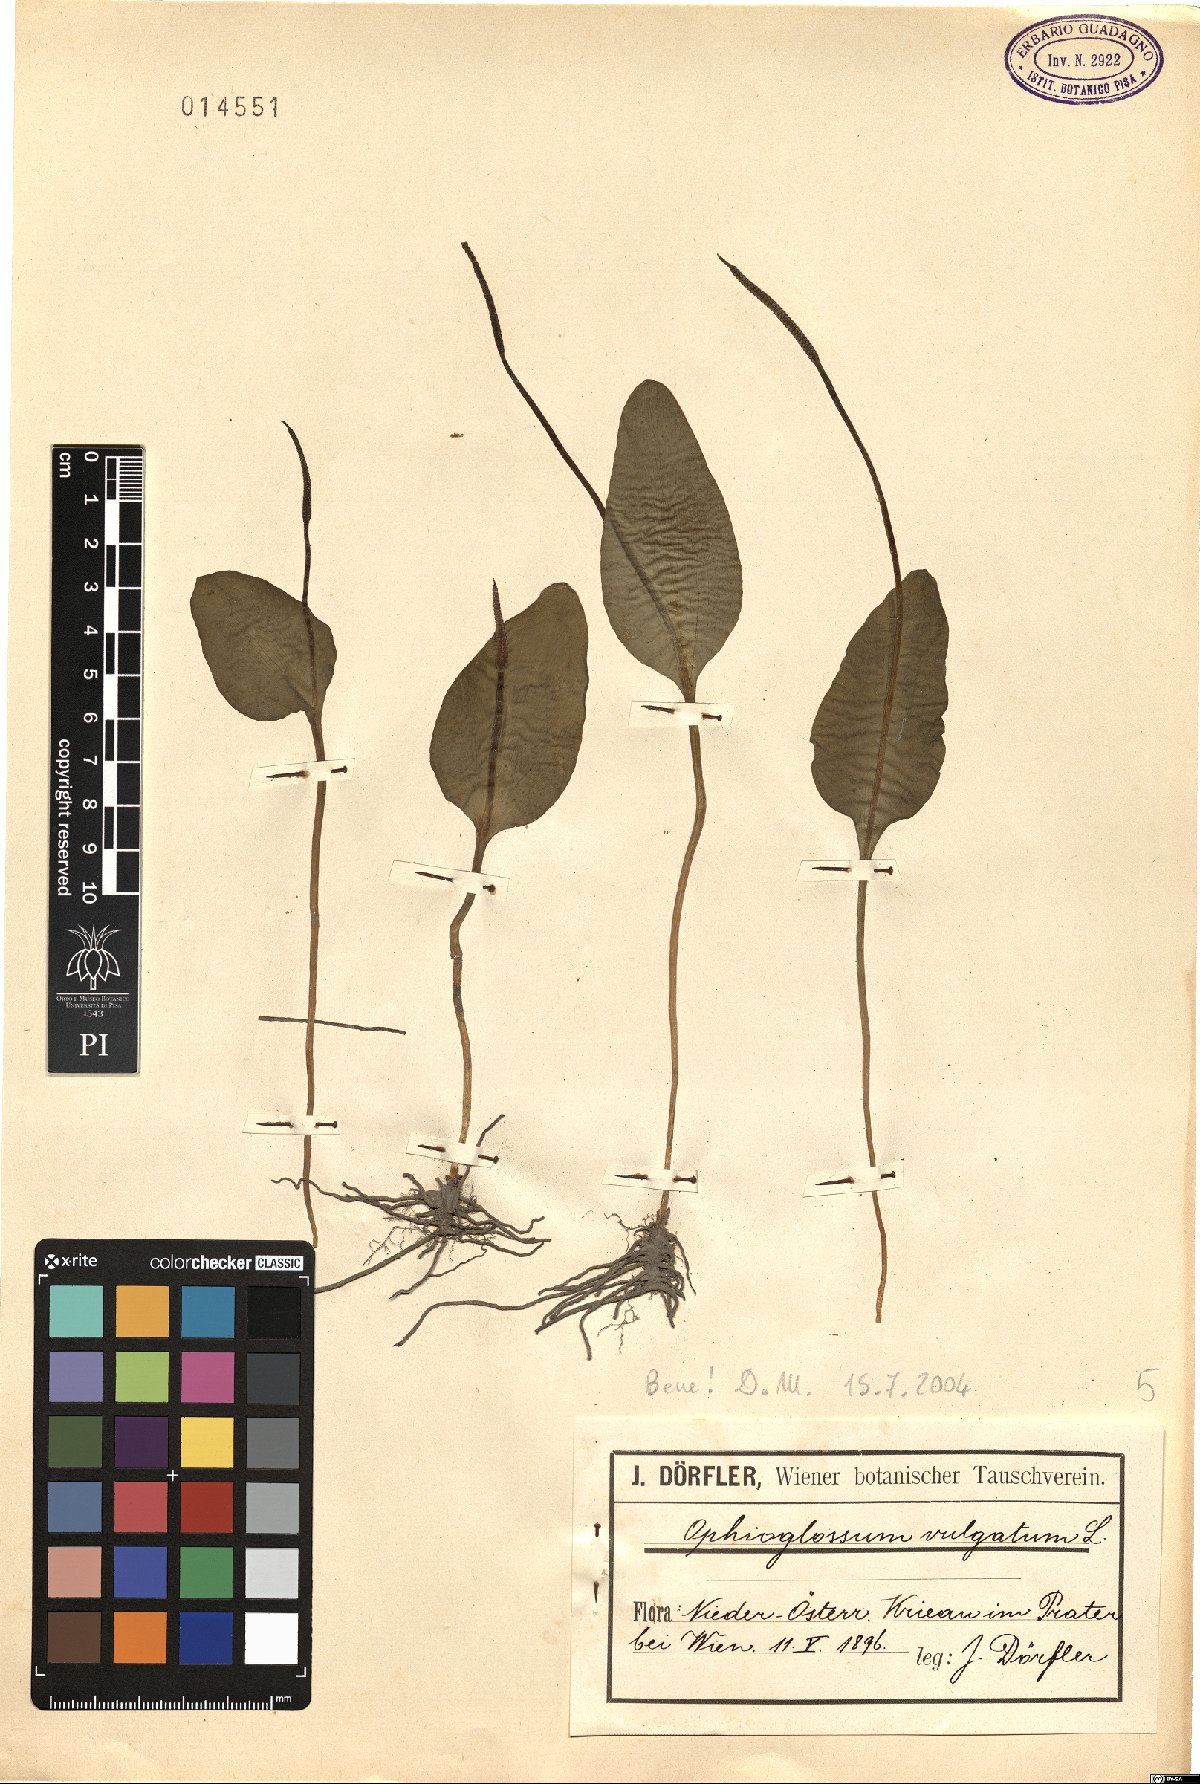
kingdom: Plantae
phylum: Tracheophyta
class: Polypodiopsida
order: Ophioglossales
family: Ophioglossaceae
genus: Ophioglossum
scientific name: Ophioglossum vulgatum
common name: Adder's-tongue
